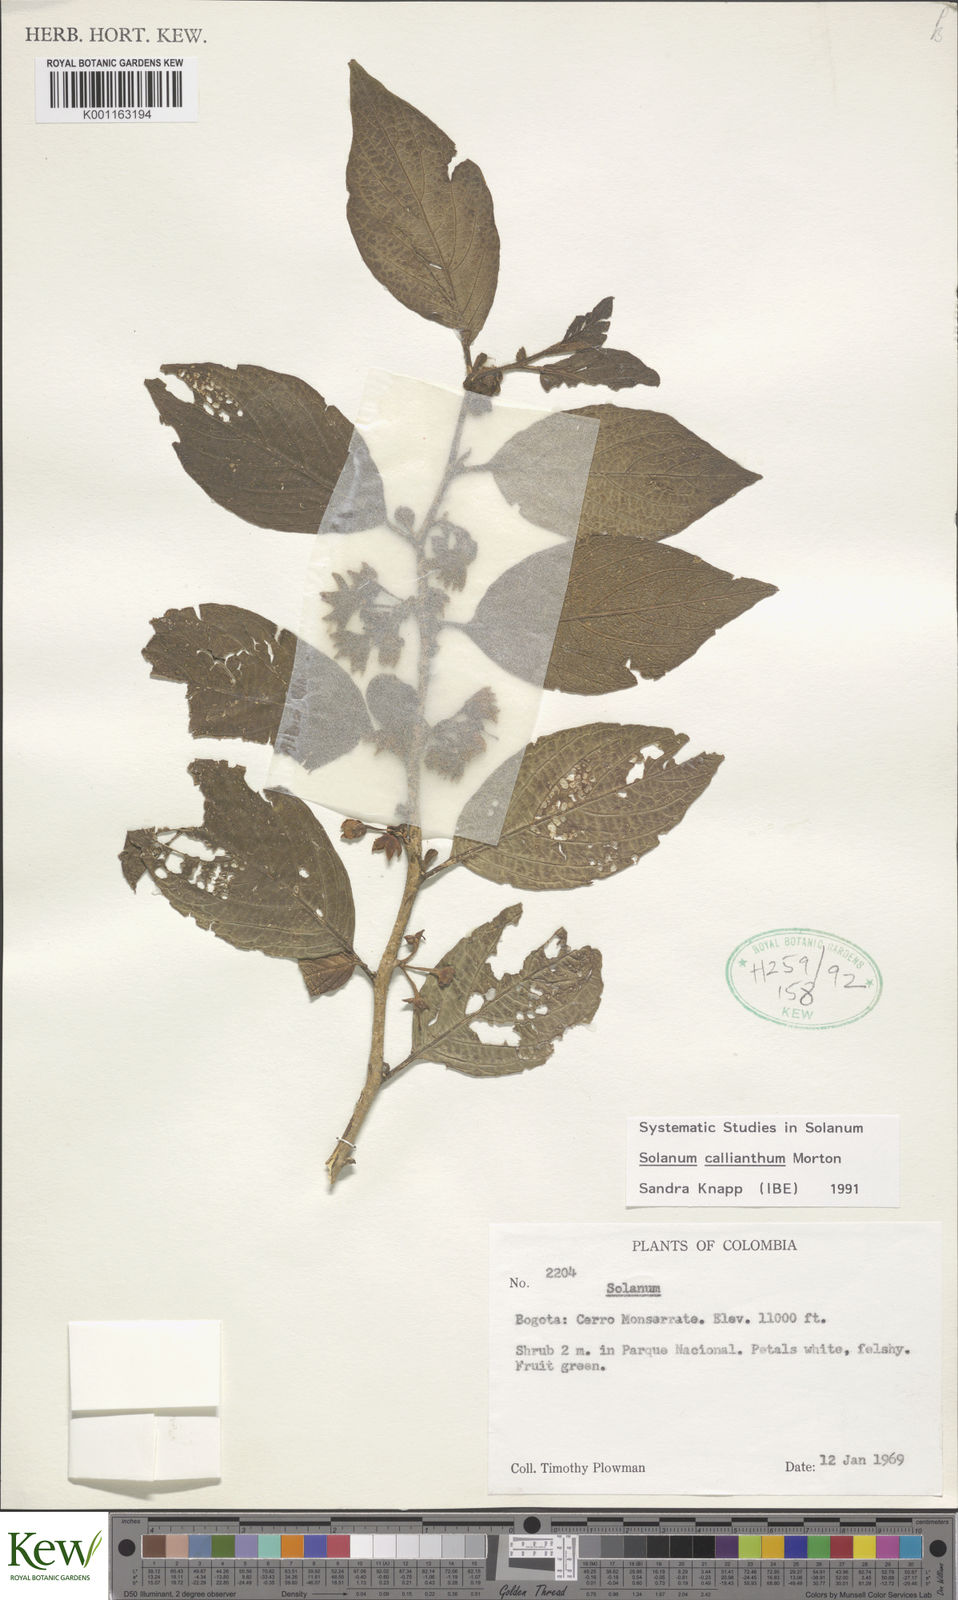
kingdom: Plantae
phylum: Tracheophyta
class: Magnoliopsida
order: Solanales
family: Solanaceae
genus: Solanum
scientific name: Solanum callianthum
